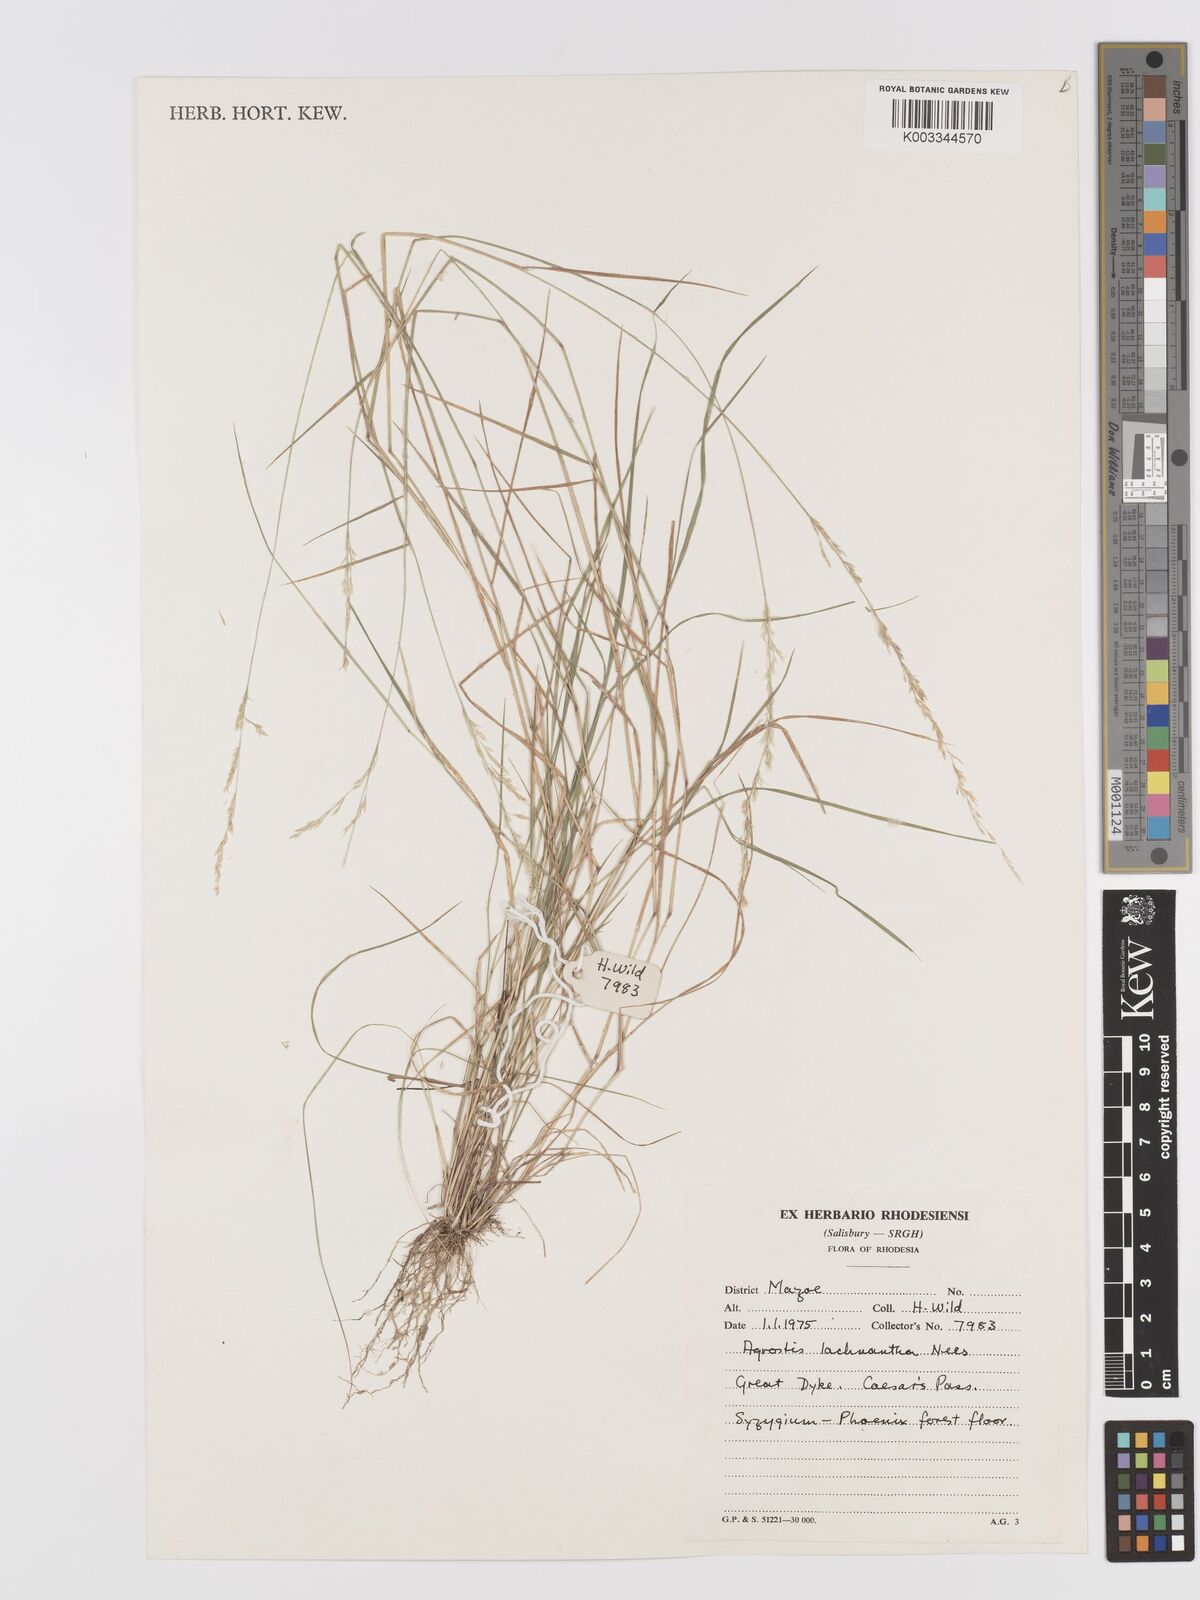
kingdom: Plantae
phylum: Tracheophyta
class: Liliopsida
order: Poales
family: Poaceae
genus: Lachnagrostis
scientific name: Lachnagrostis lachnantha
